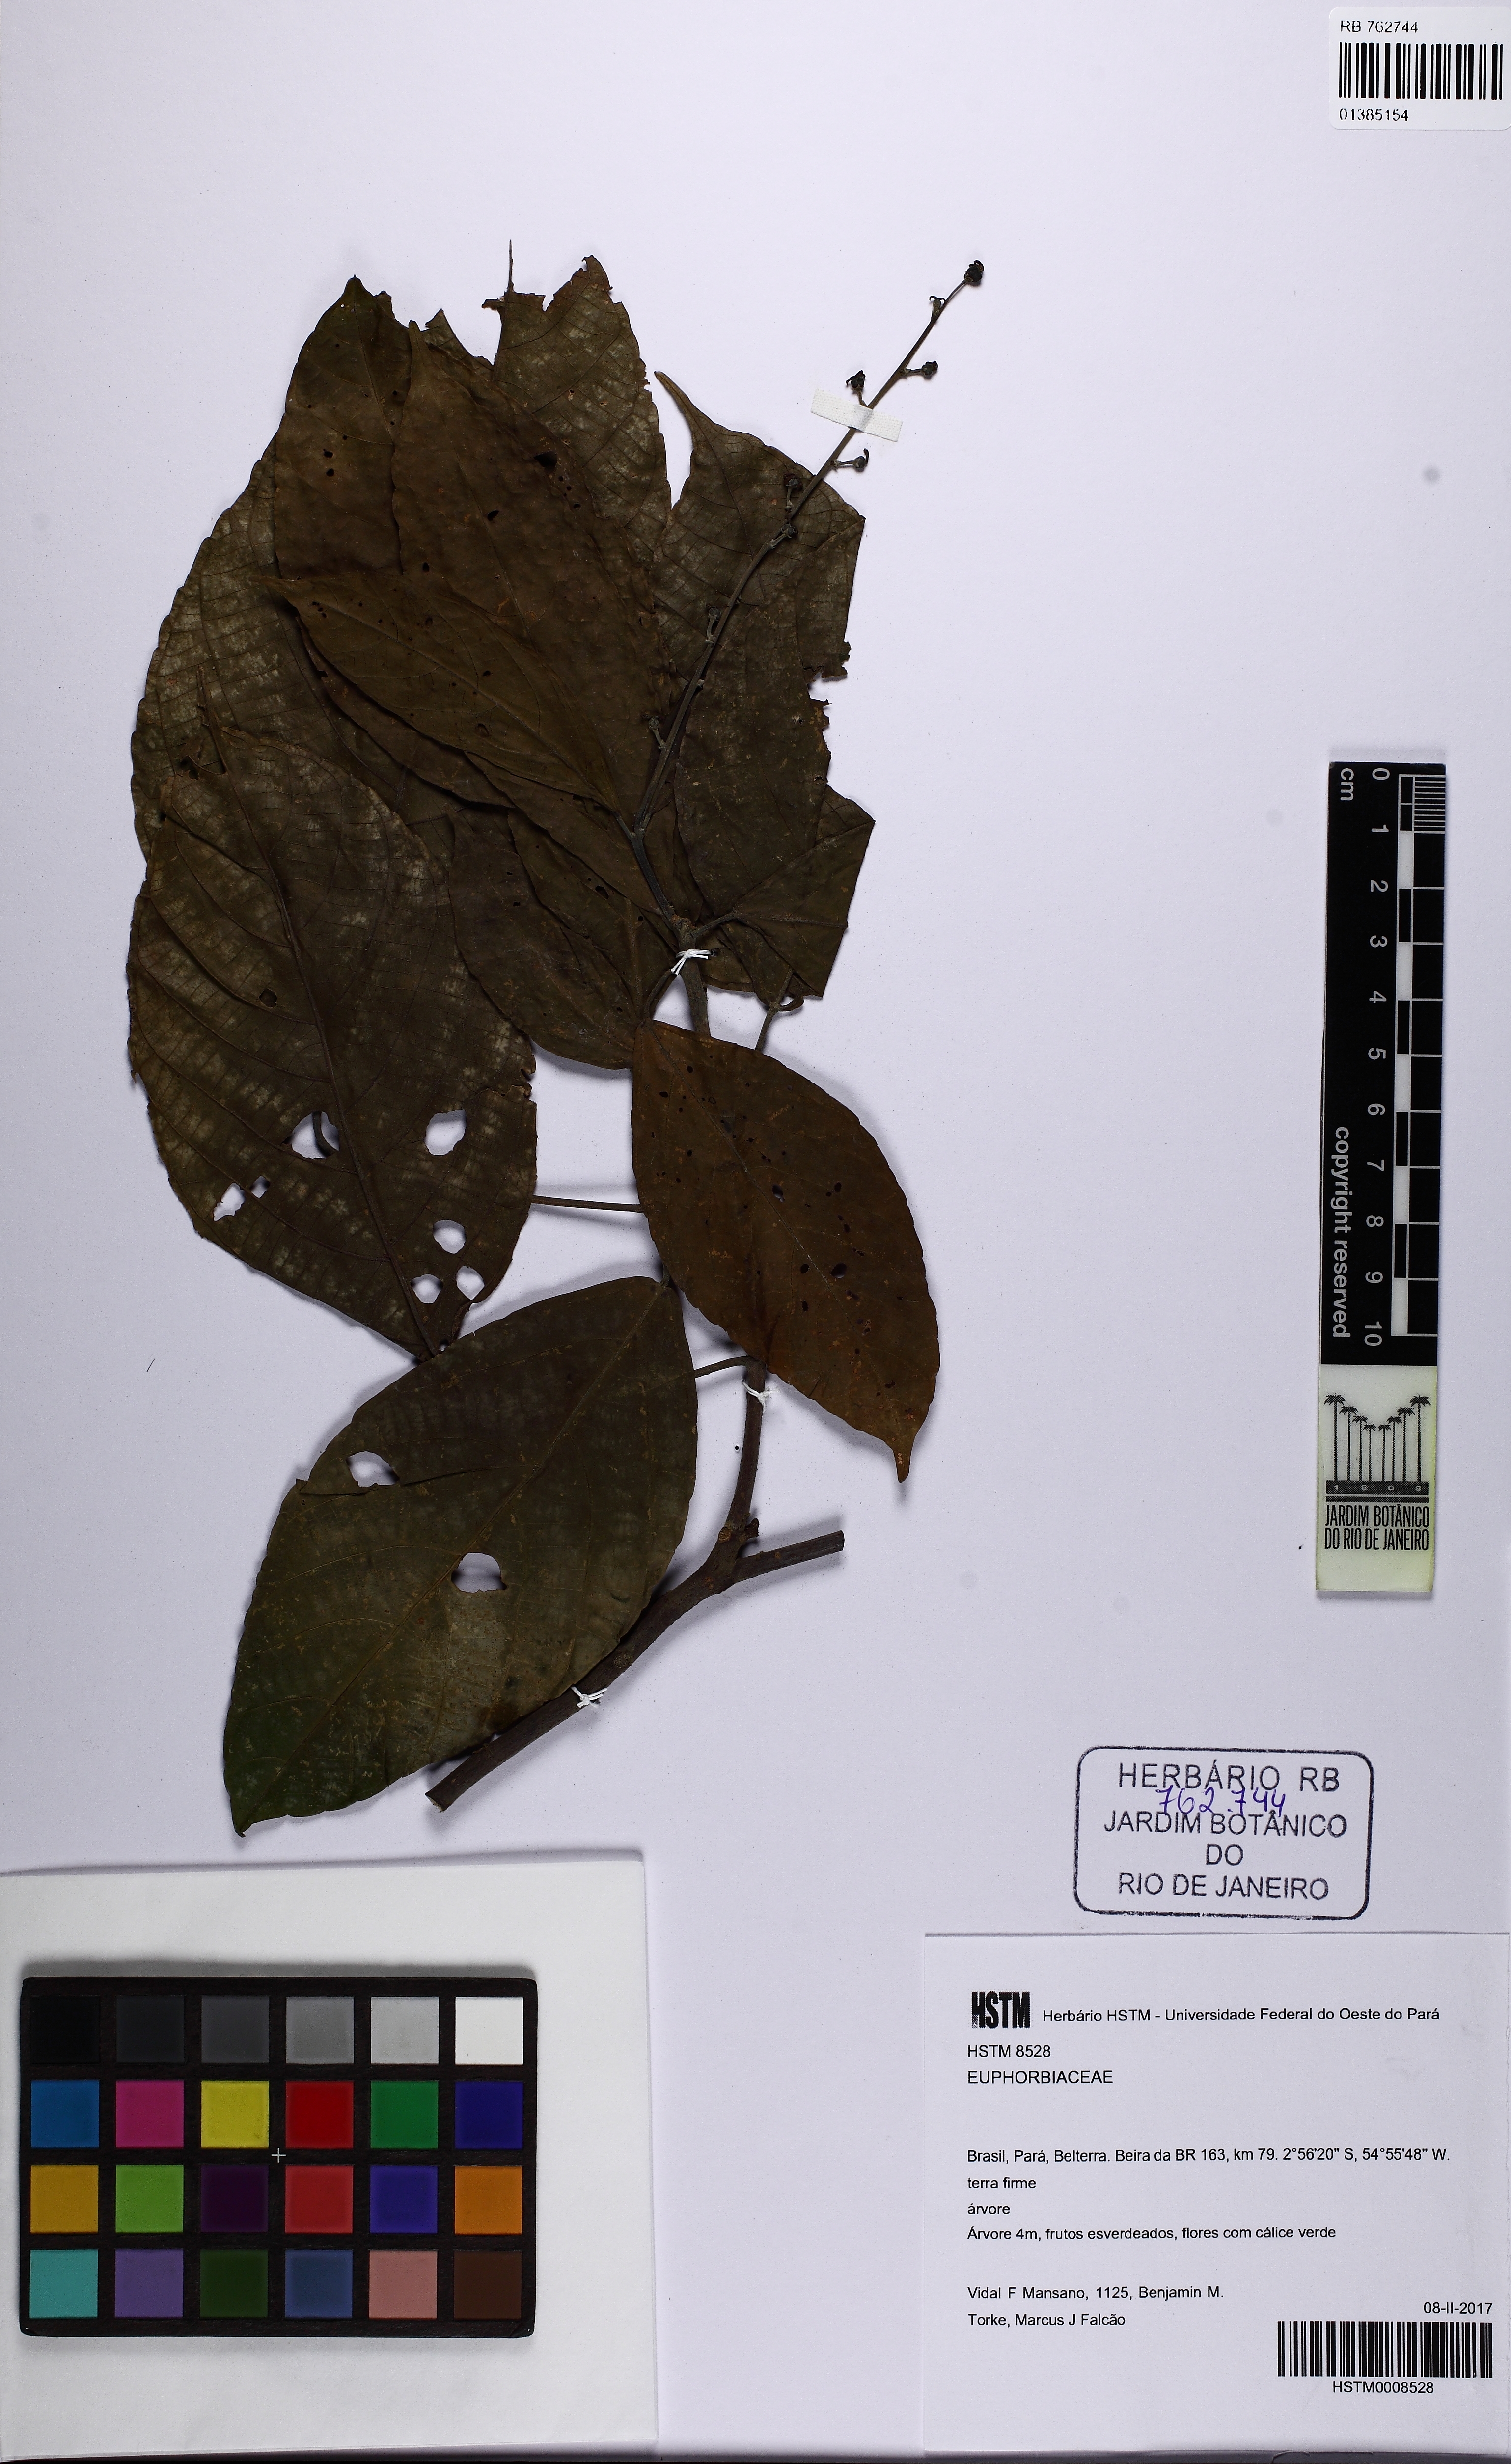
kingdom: Plantae
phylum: Tracheophyta
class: Magnoliopsida
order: Malpighiales
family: Euphorbiaceae
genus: Conceveiba
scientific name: Conceveiba
